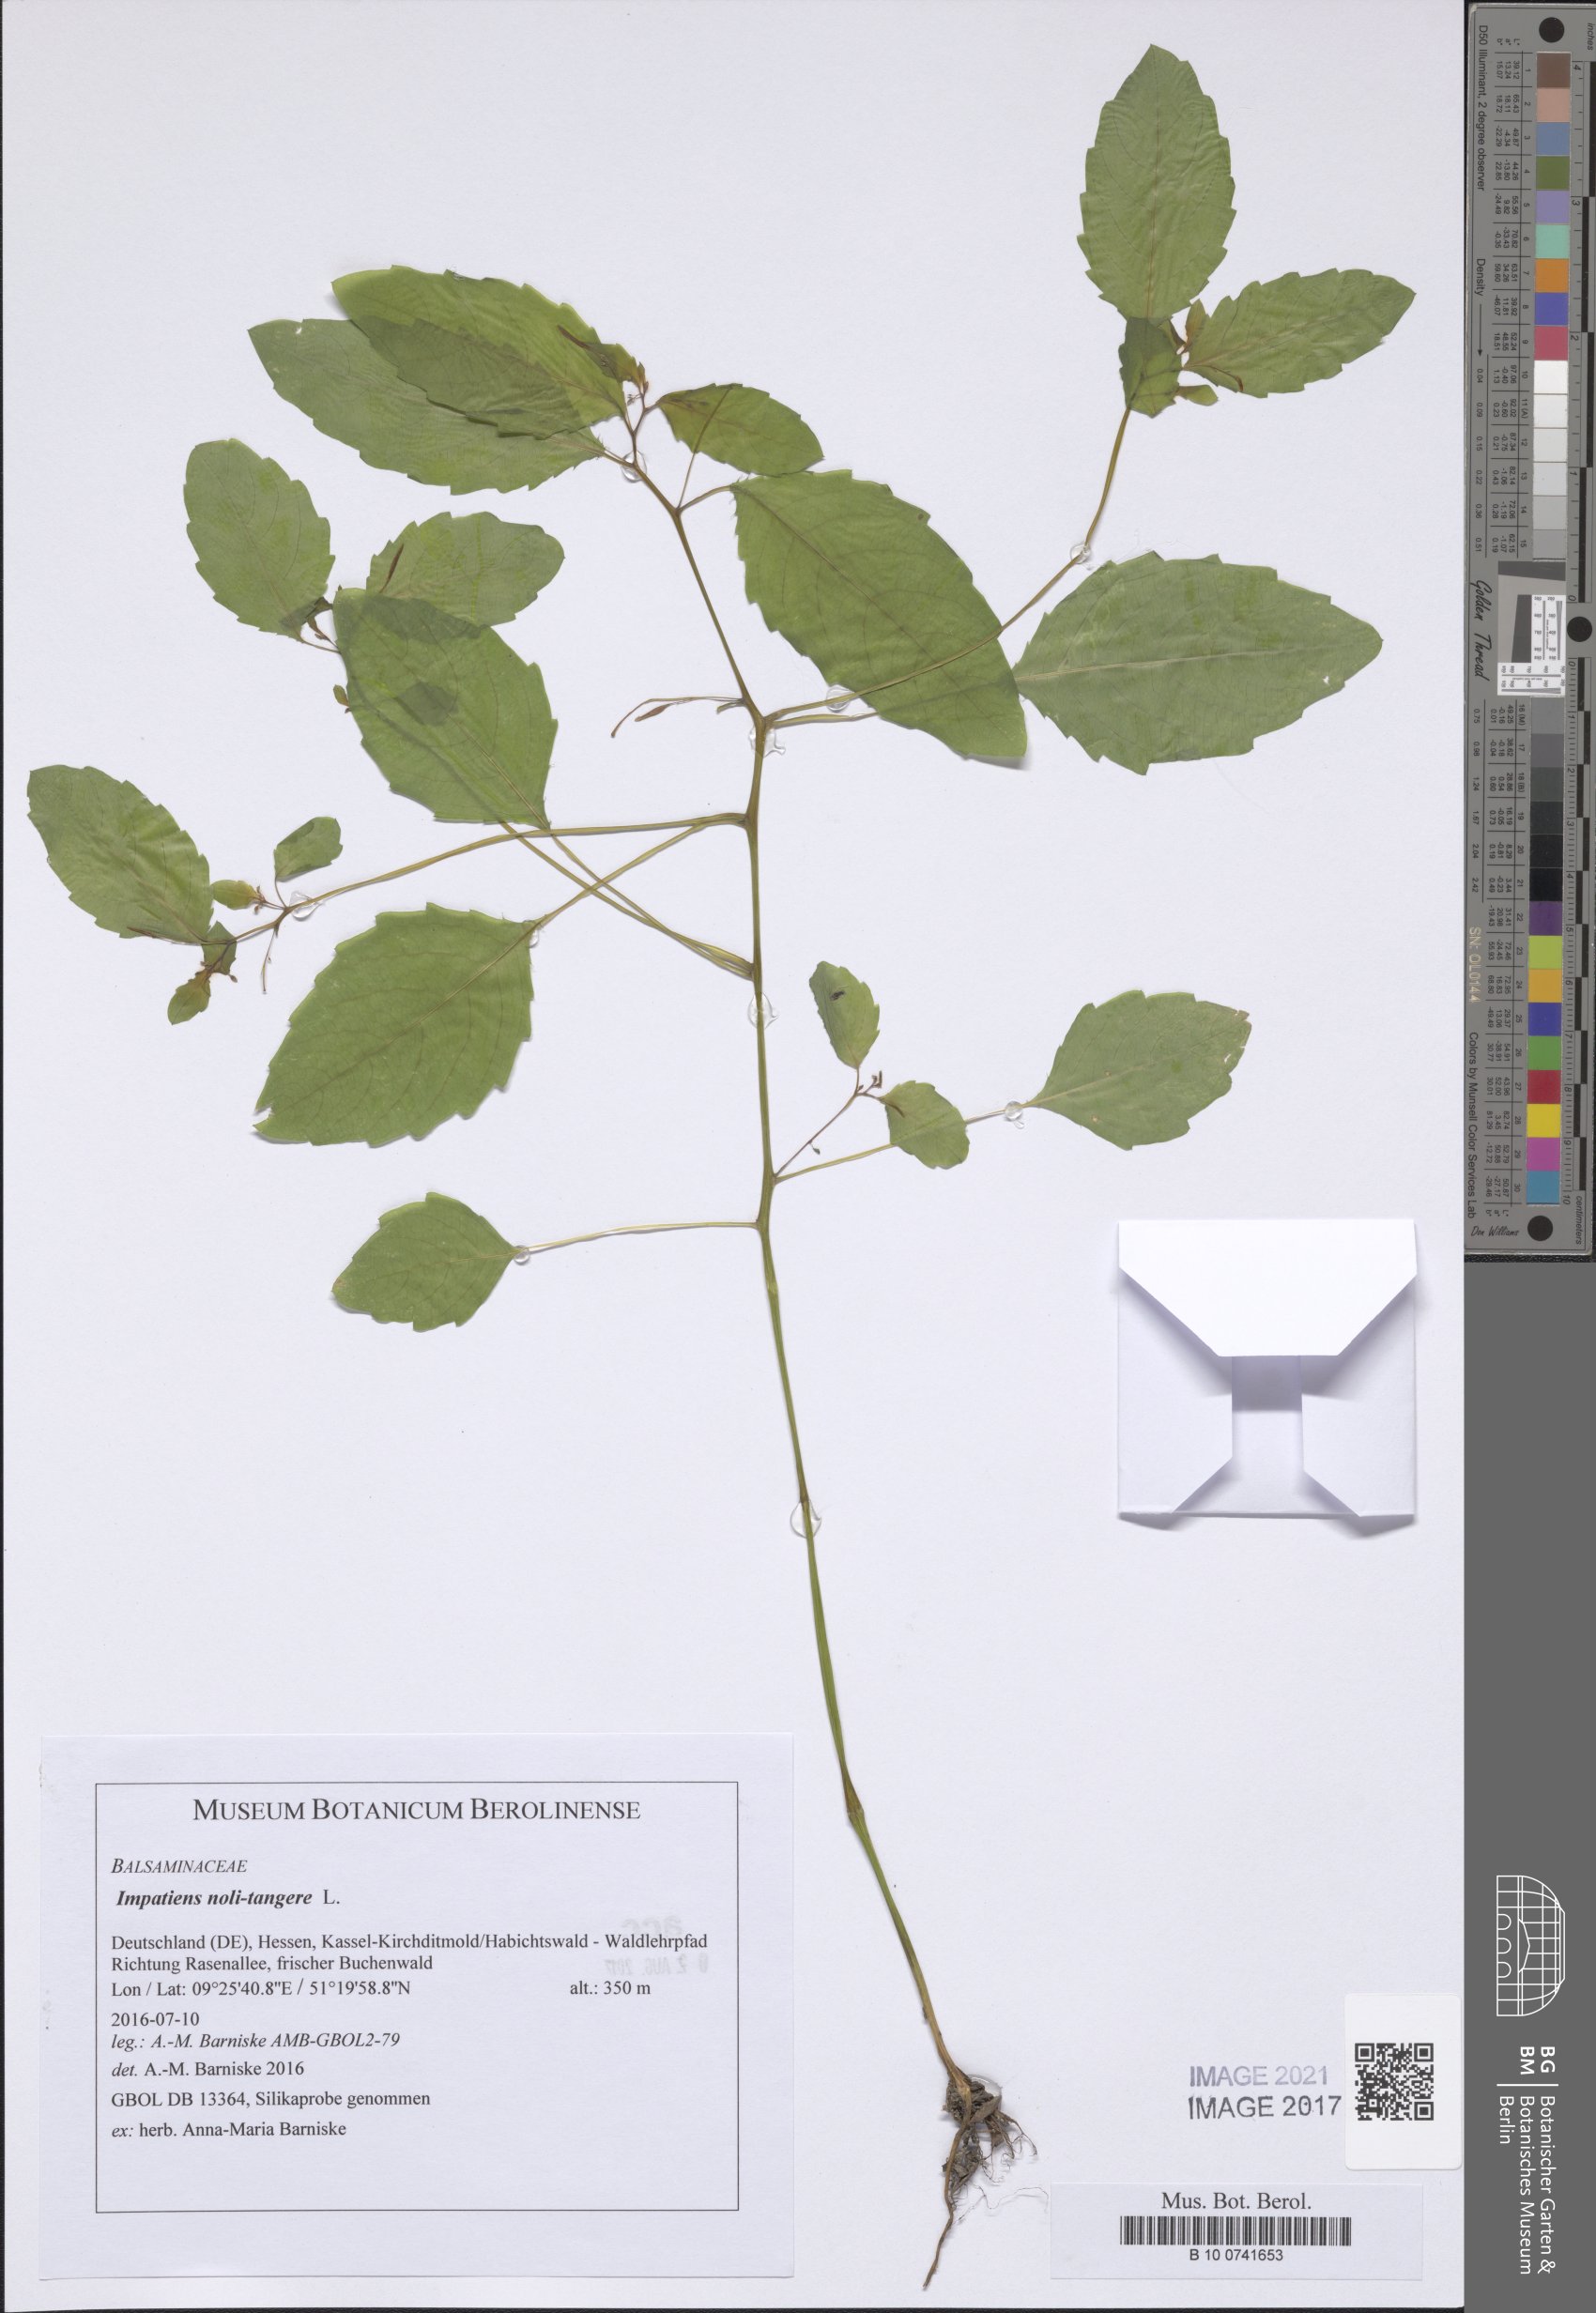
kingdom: Plantae
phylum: Tracheophyta
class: Magnoliopsida
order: Ericales
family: Balsaminaceae
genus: Impatiens
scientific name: Impatiens noli-tangere
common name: Touch-me-not balsam
